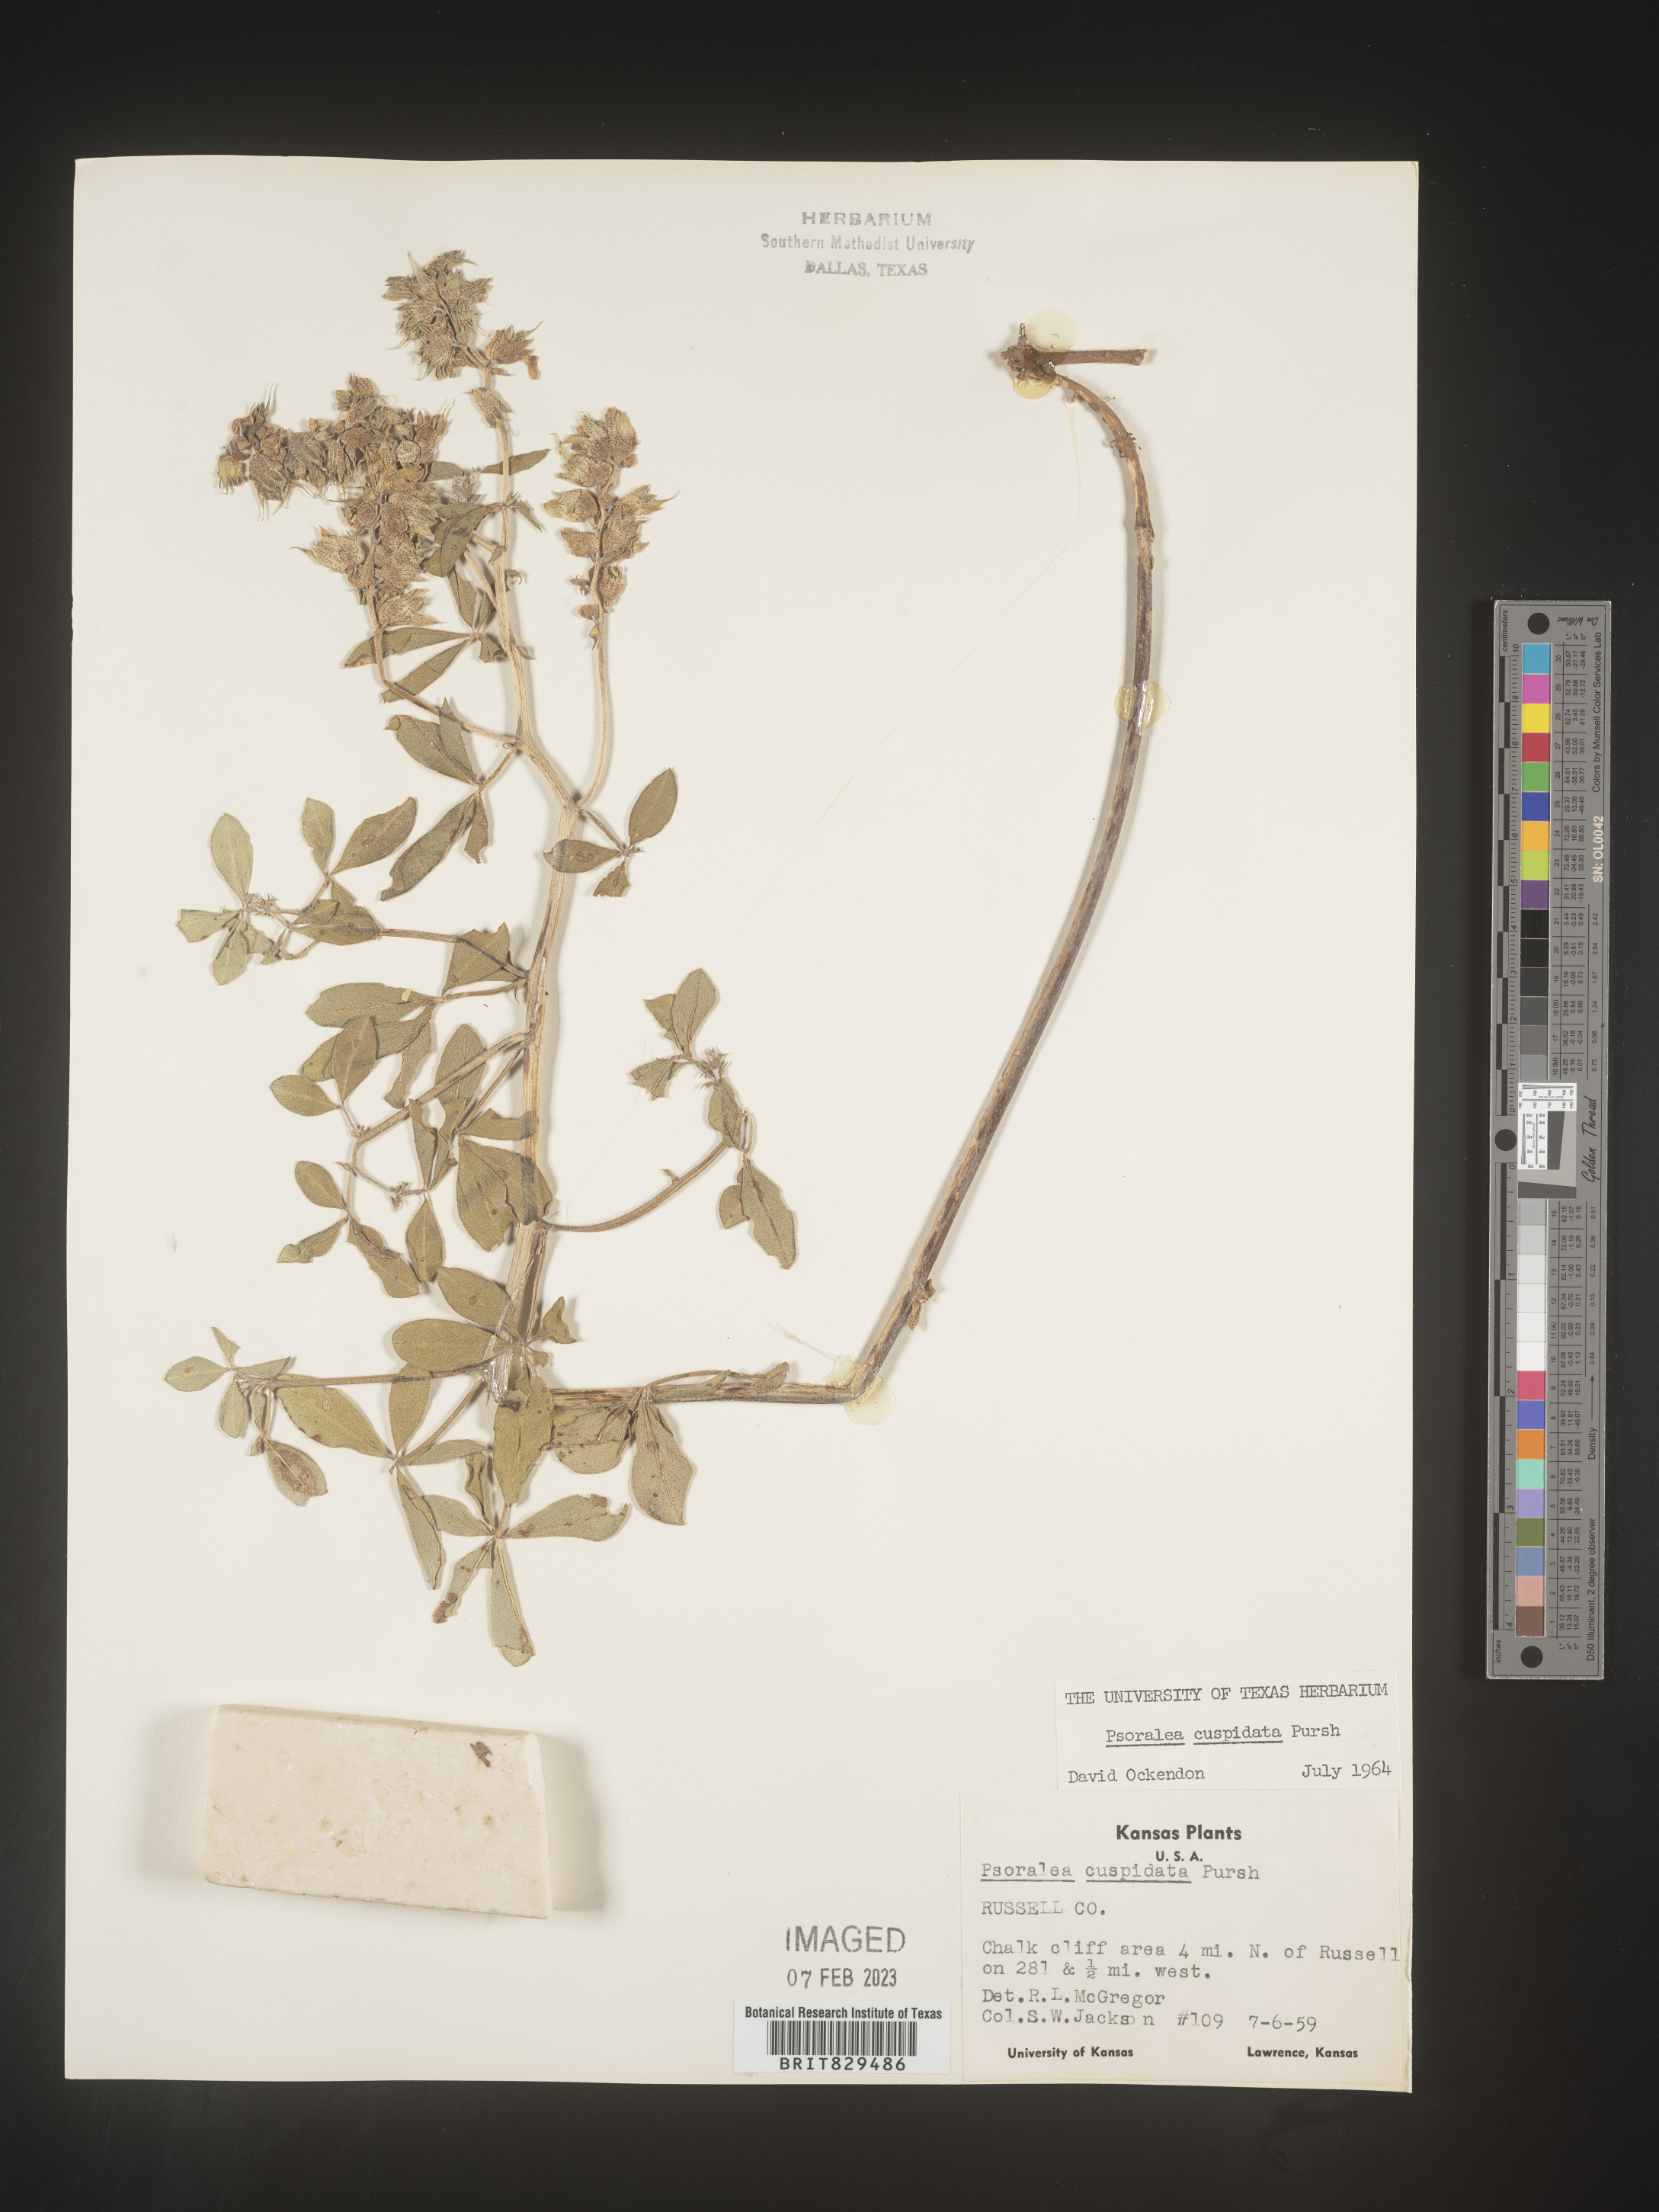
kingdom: Plantae
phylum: Tracheophyta
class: Magnoliopsida
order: Fabales
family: Fabaceae
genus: Pediomelum
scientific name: Pediomelum cuspidatum
